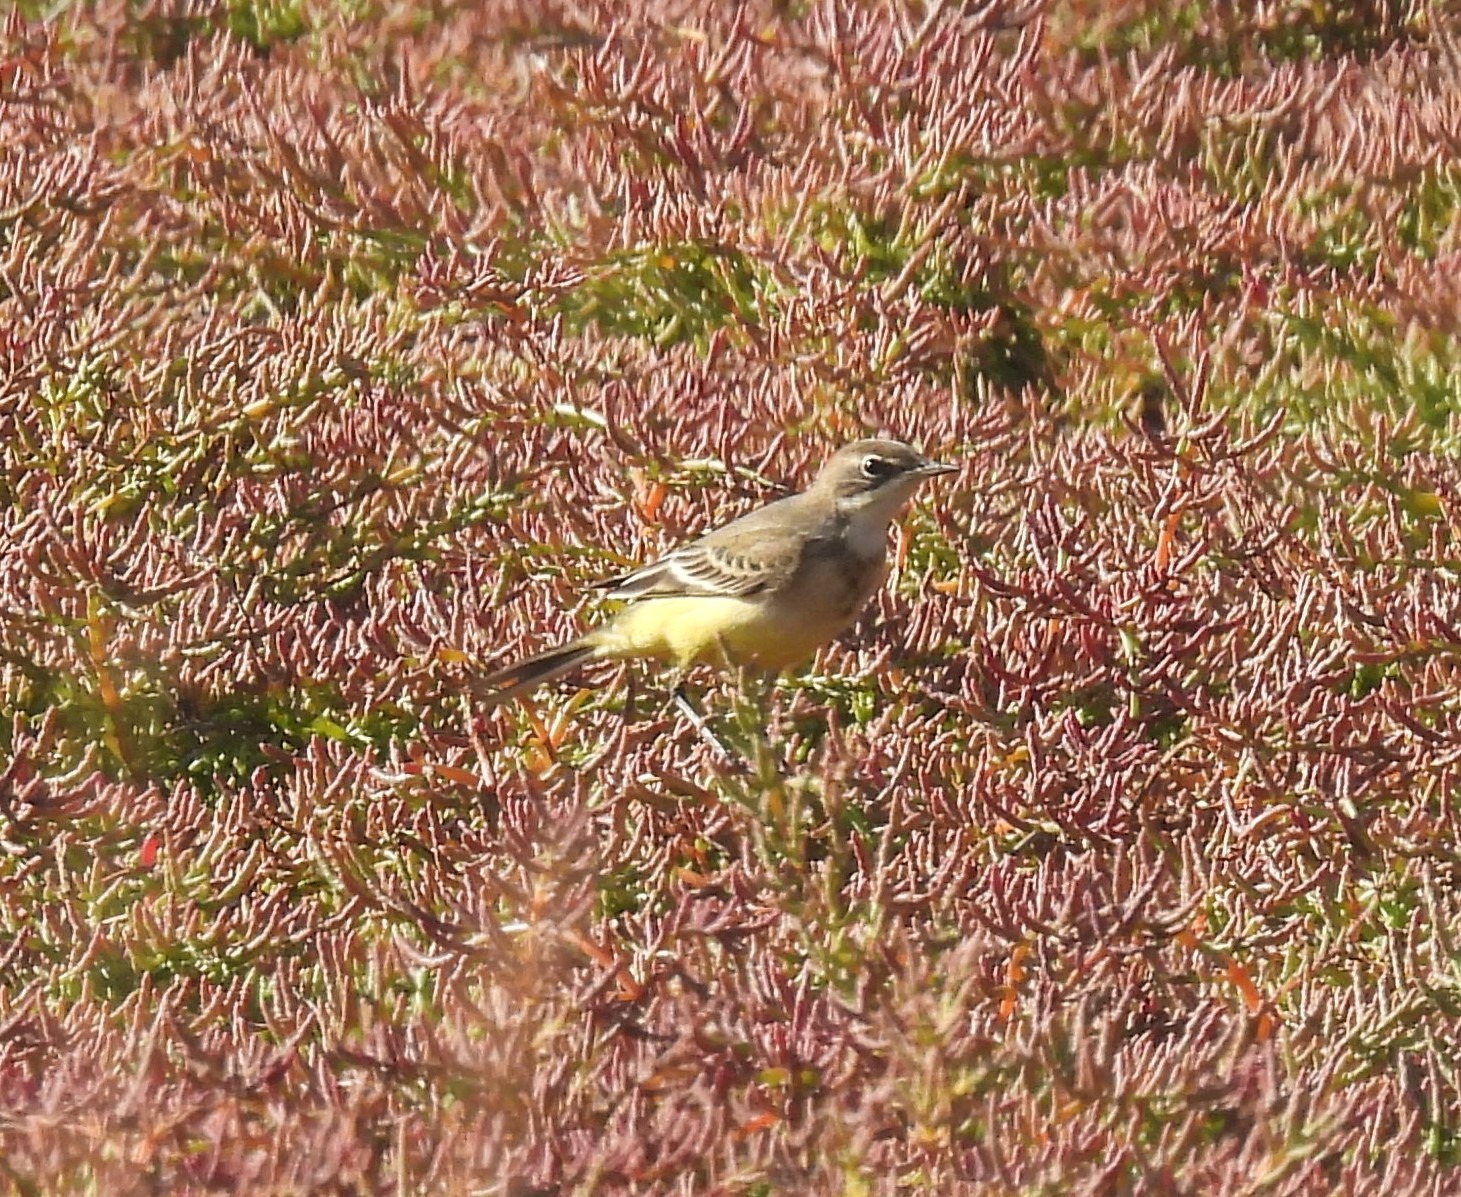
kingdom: Animalia
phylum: Chordata
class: Aves
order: Passeriformes
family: Motacillidae
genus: Motacilla
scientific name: Motacilla flava
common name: Gul vipstjert
